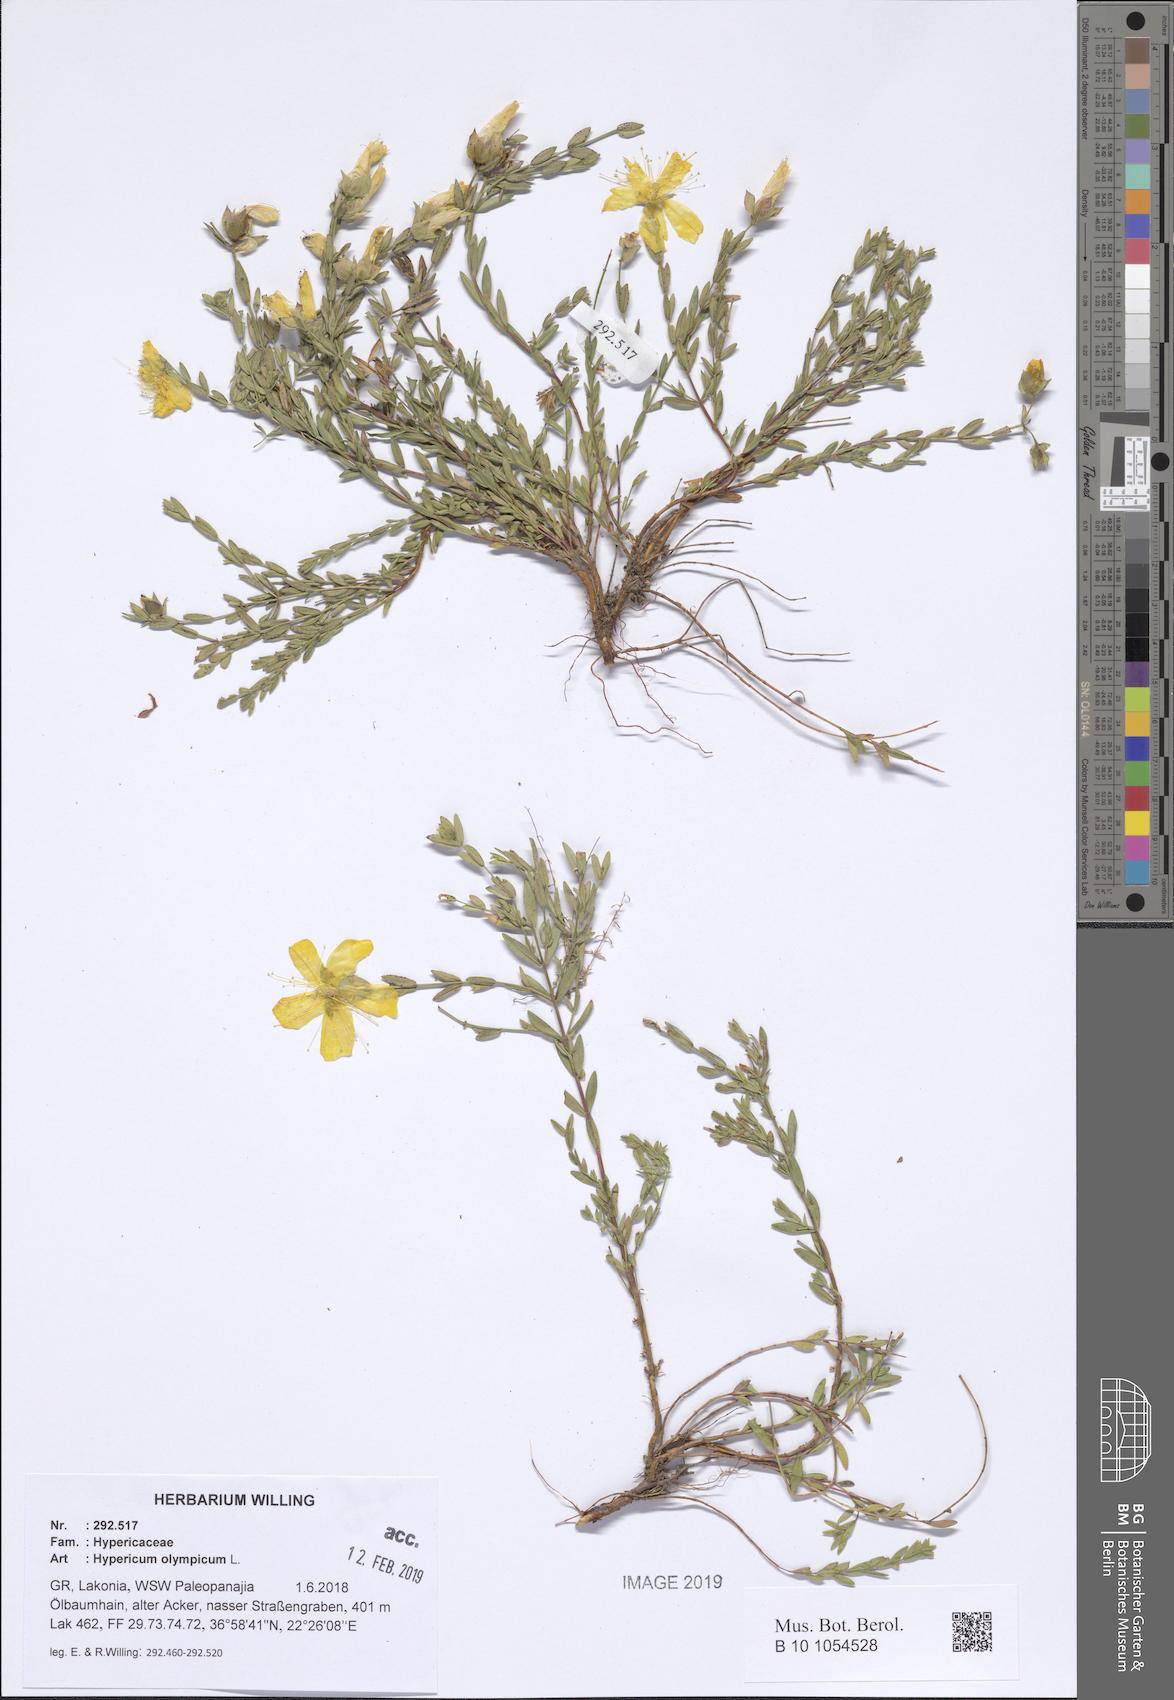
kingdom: Plantae
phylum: Tracheophyta
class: Magnoliopsida
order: Malpighiales
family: Hypericaceae
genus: Hypericum
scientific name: Hypericum olympicum
